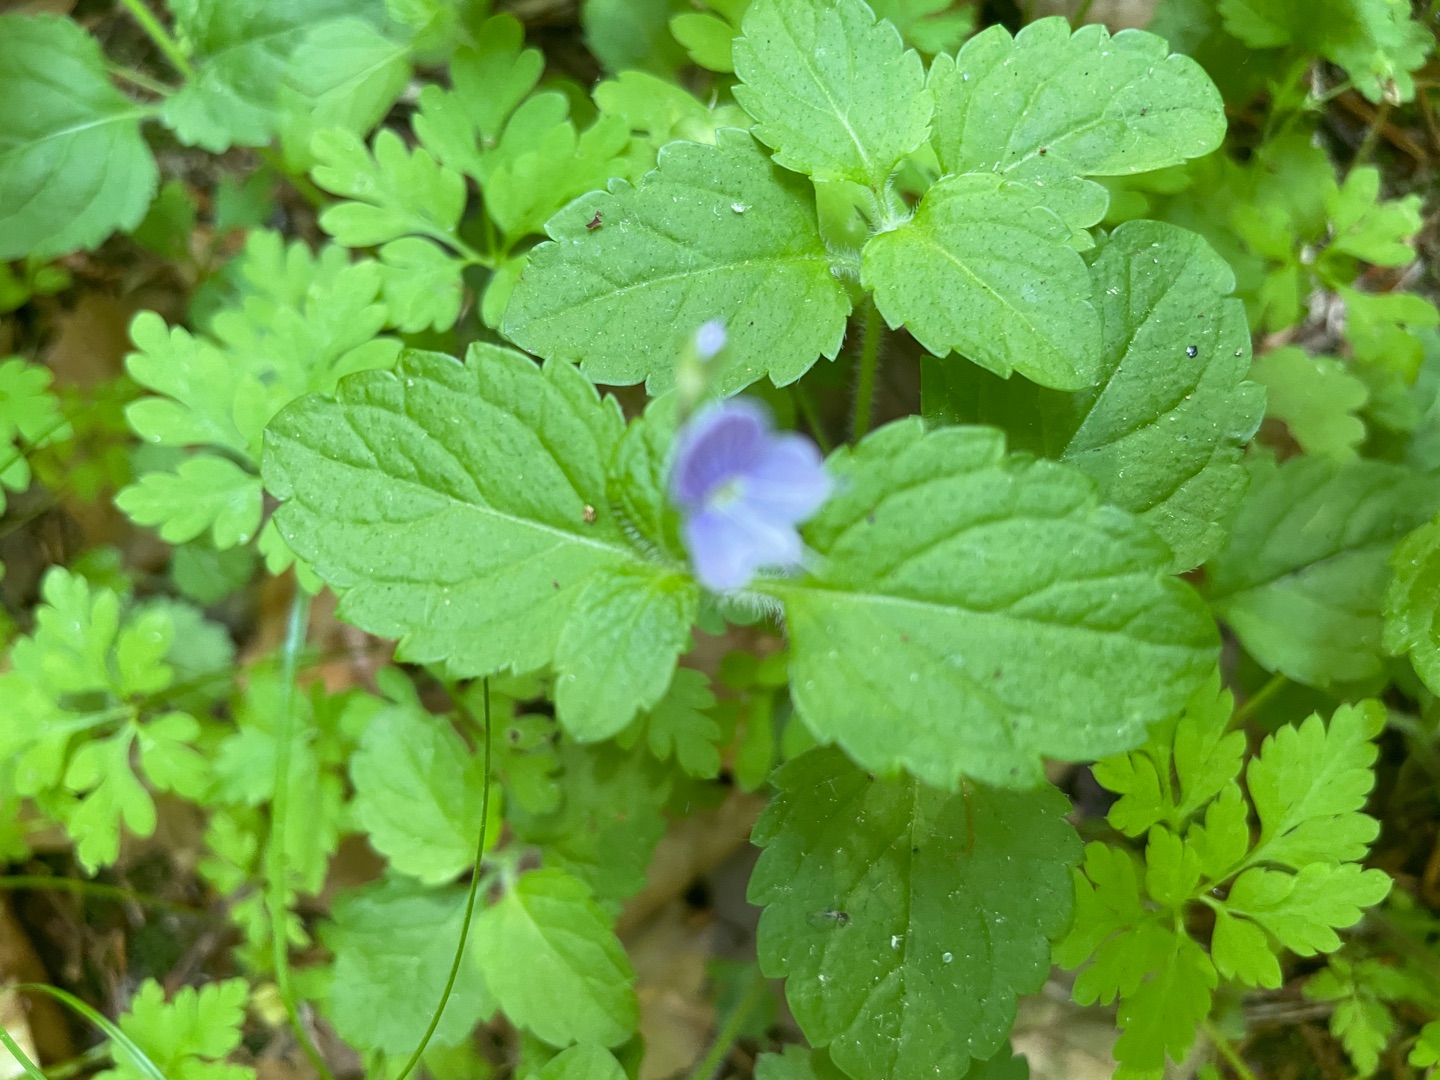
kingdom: Plantae
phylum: Tracheophyta
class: Magnoliopsida
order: Lamiales
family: Plantaginaceae
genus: Veronica
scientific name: Veronica montana
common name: Bjerg-ærenpris
